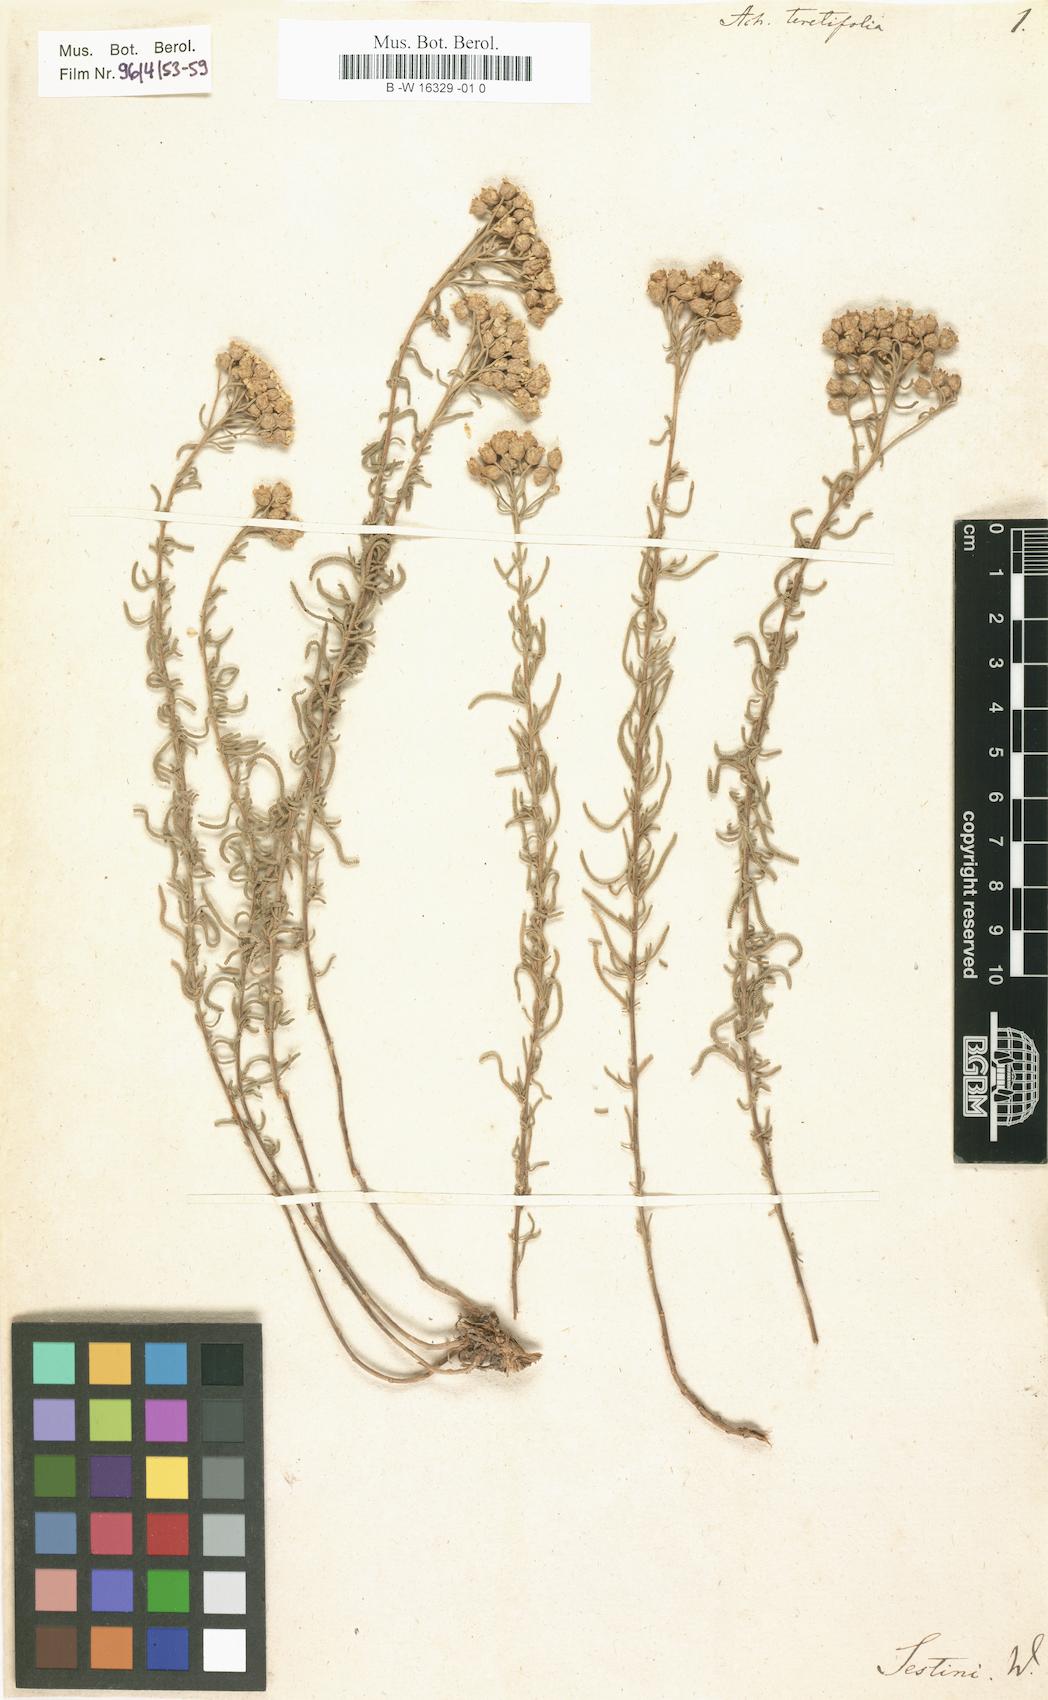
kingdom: Plantae
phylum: Tracheophyta
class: Magnoliopsida
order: Asterales
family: Asteraceae
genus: Achillea
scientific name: Achillea teretifolia
